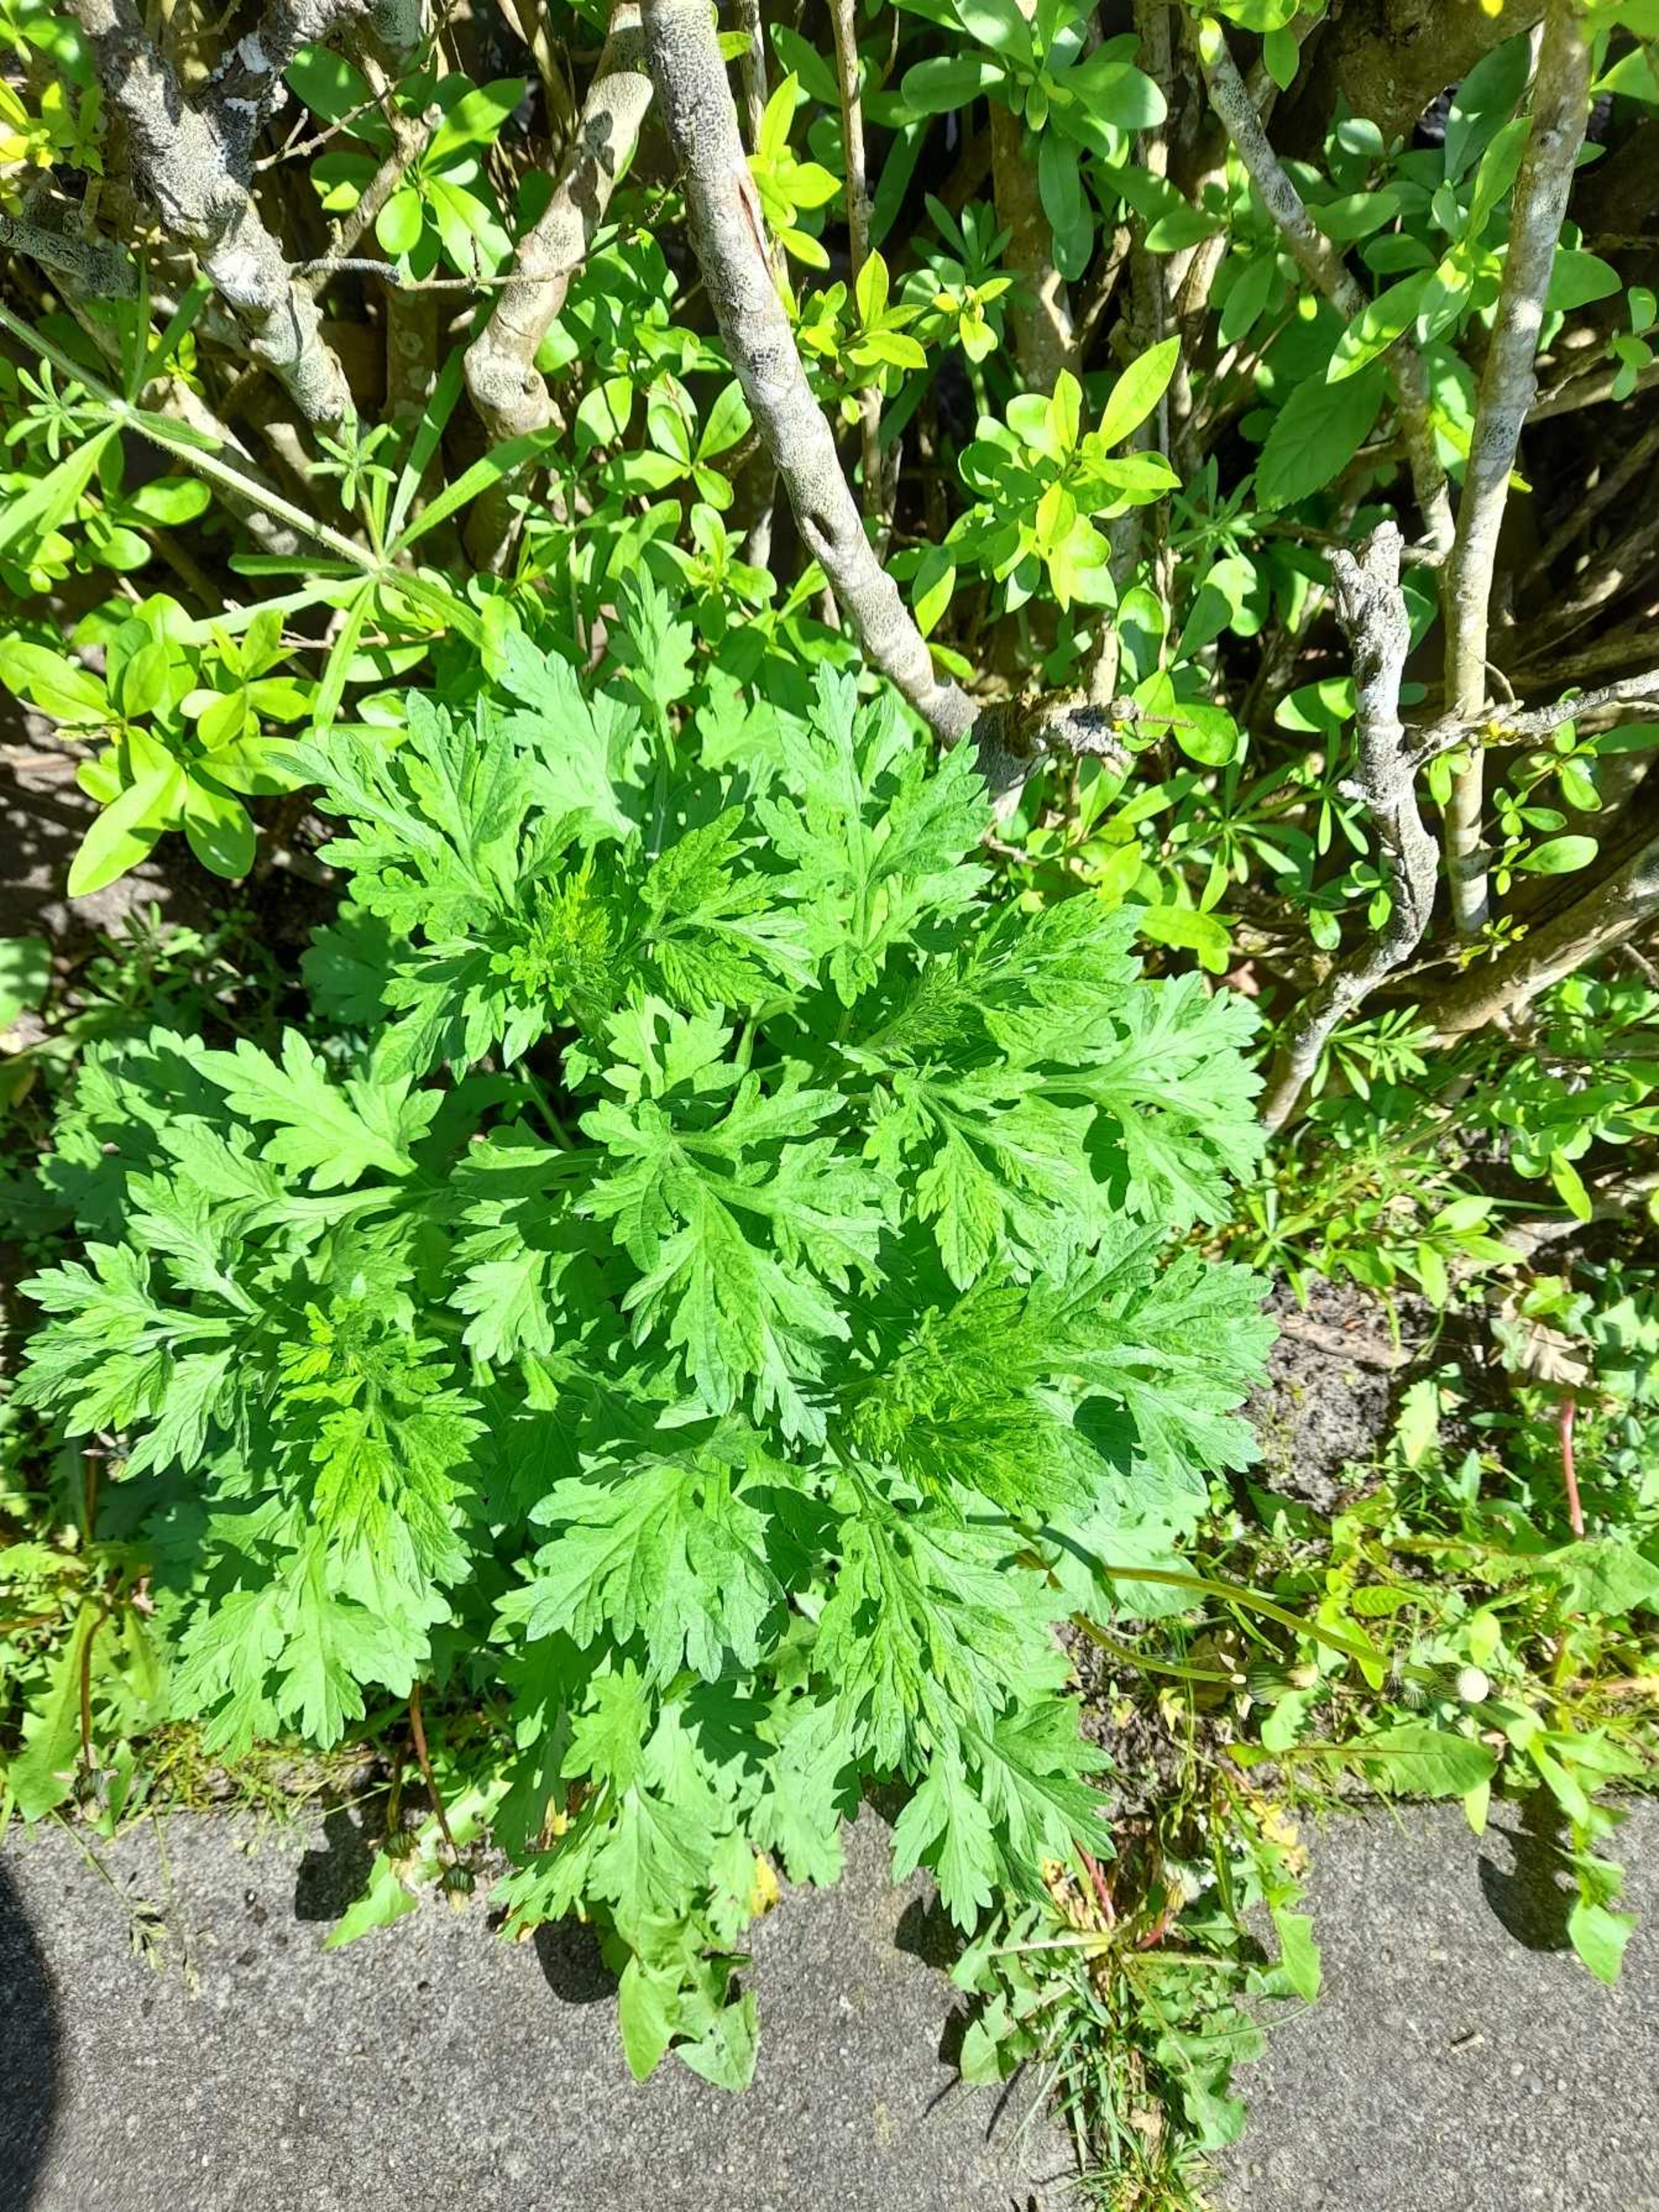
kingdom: Plantae
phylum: Tracheophyta
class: Magnoliopsida
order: Asterales
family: Asteraceae
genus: Artemisia
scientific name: Artemisia vulgaris
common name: Grå-bynke
